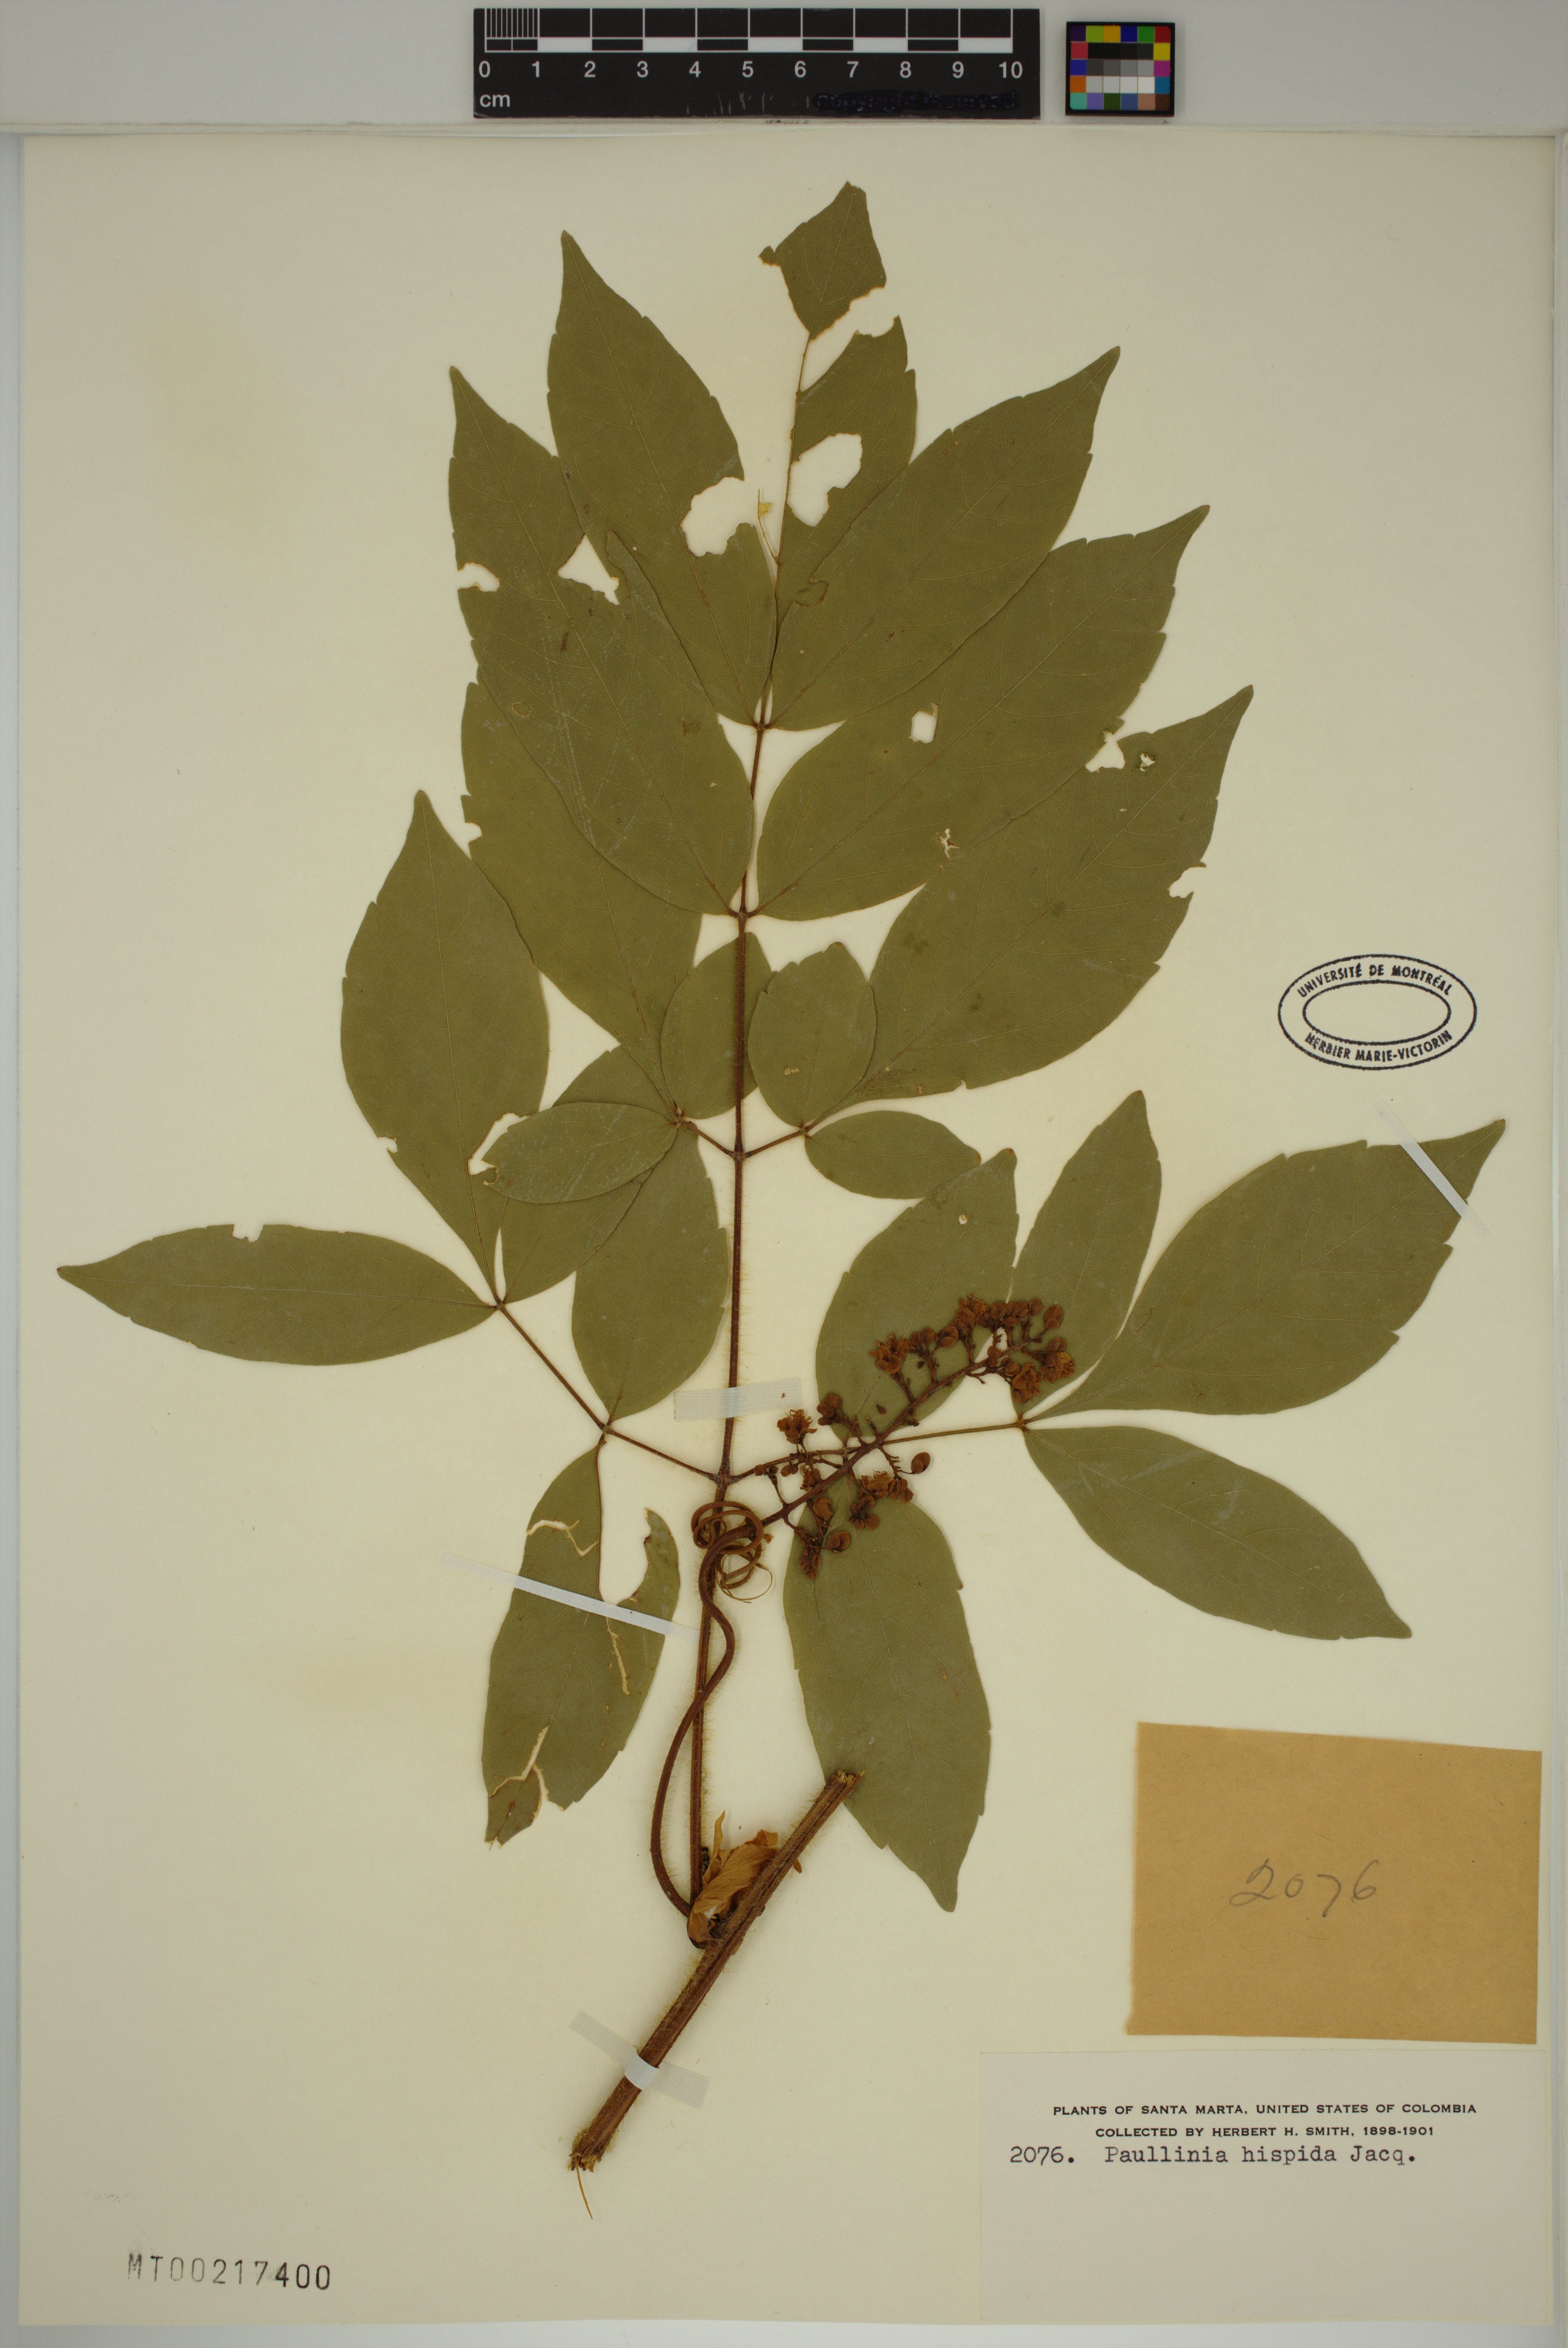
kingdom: Plantae
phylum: Tracheophyta
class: Magnoliopsida
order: Sapindales
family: Sapindaceae
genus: Paullinia
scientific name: Paullinia hispida
